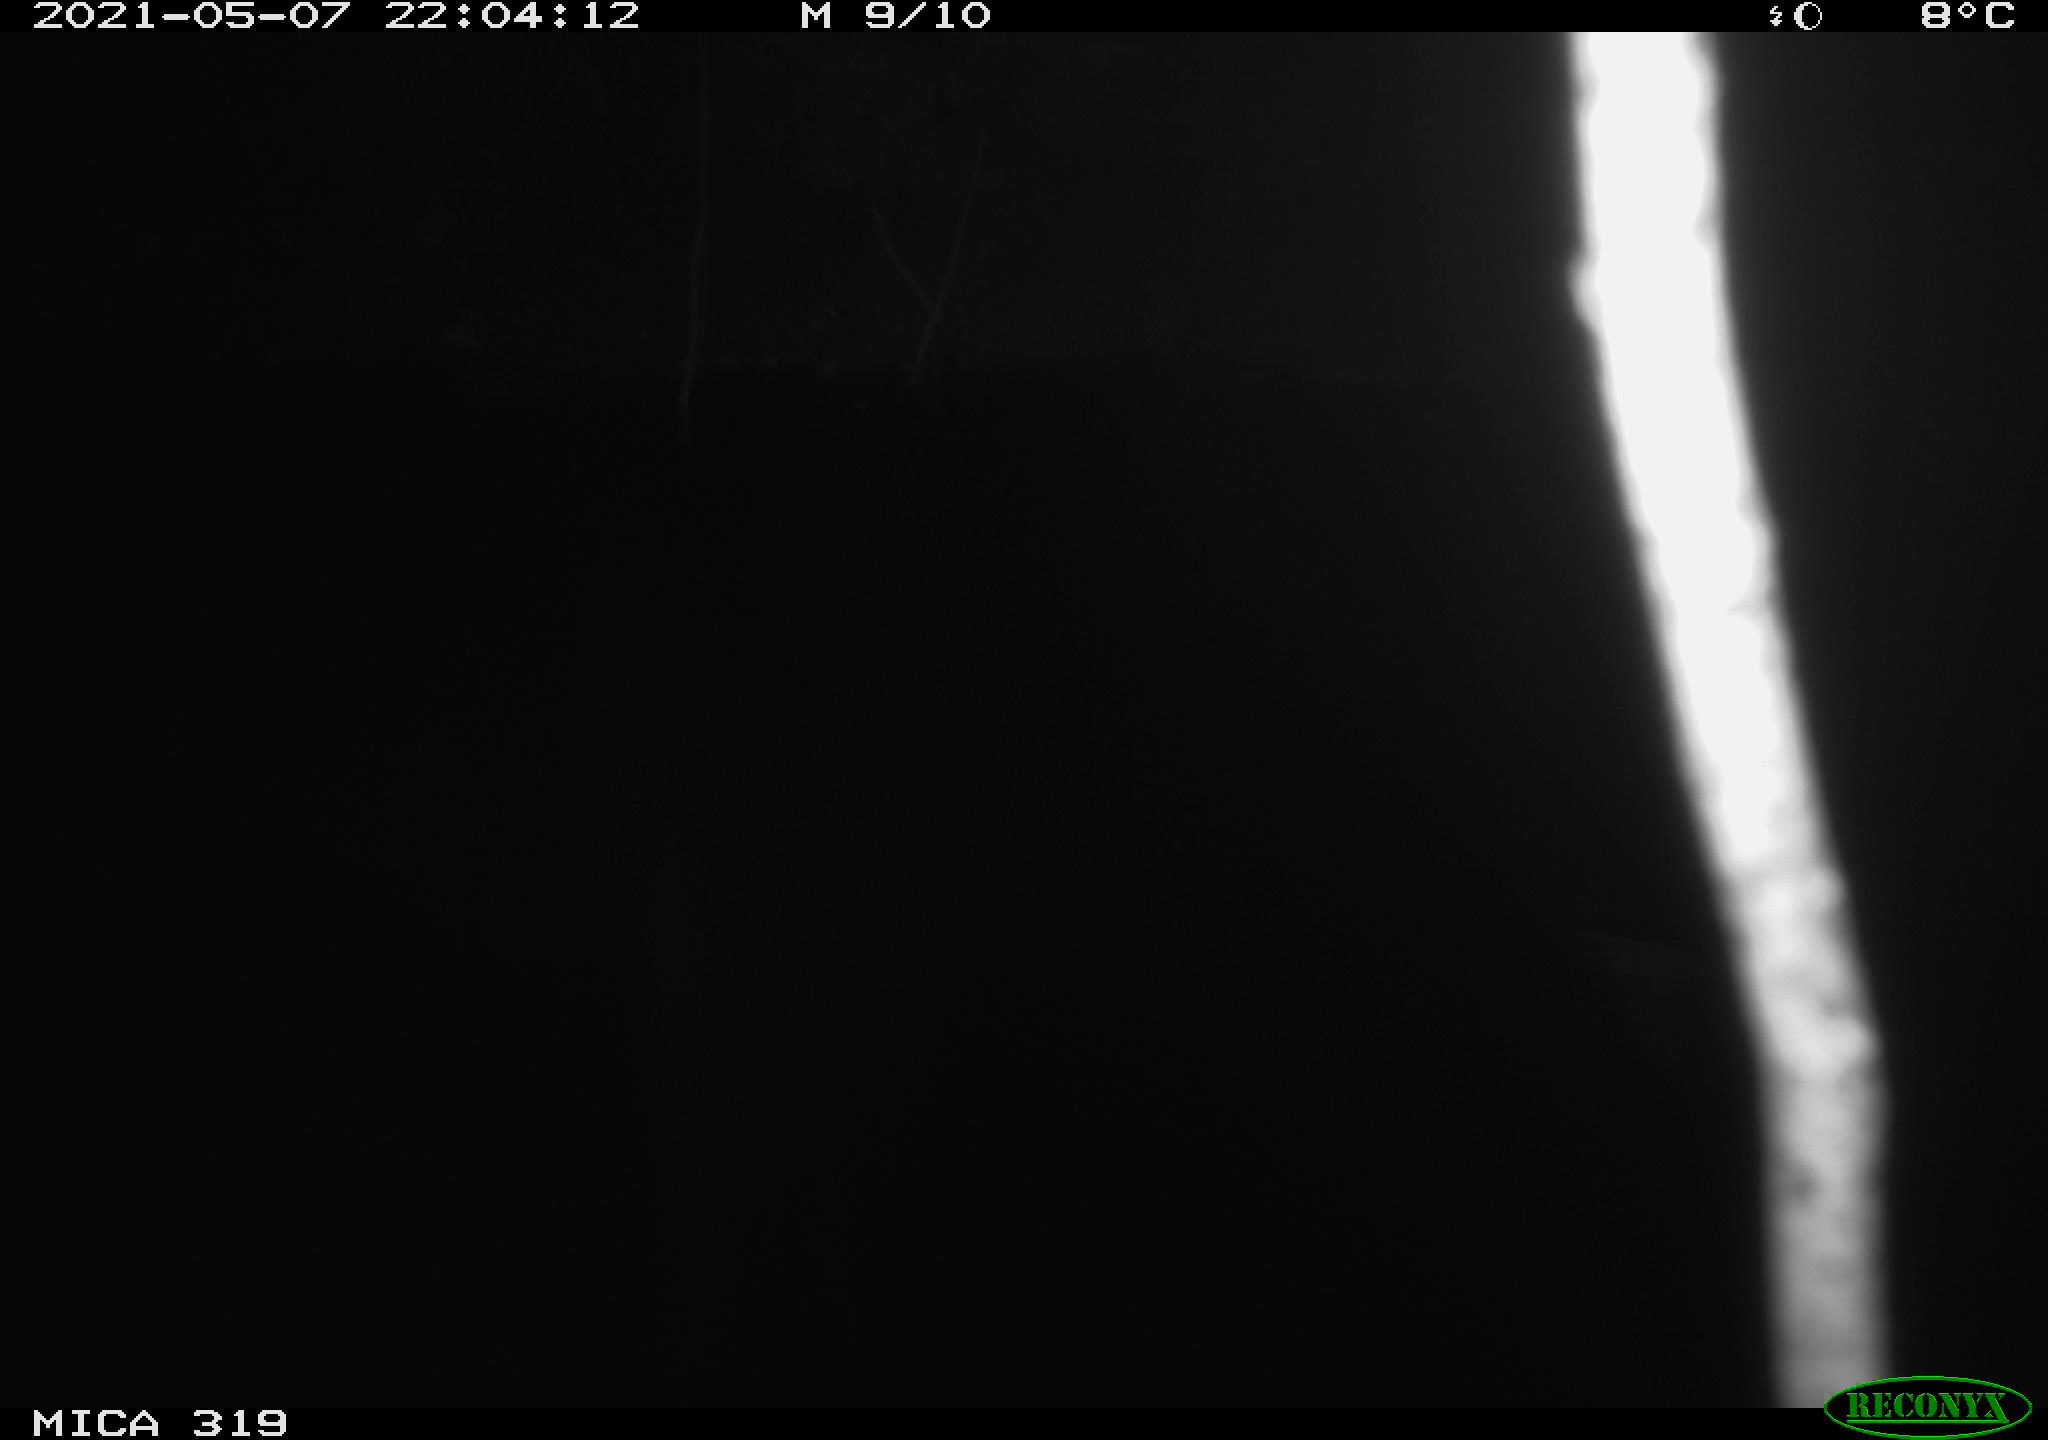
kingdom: Animalia
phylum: Chordata
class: Aves
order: Anseriformes
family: Anatidae
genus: Anas
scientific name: Anas platyrhynchos
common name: Mallard
